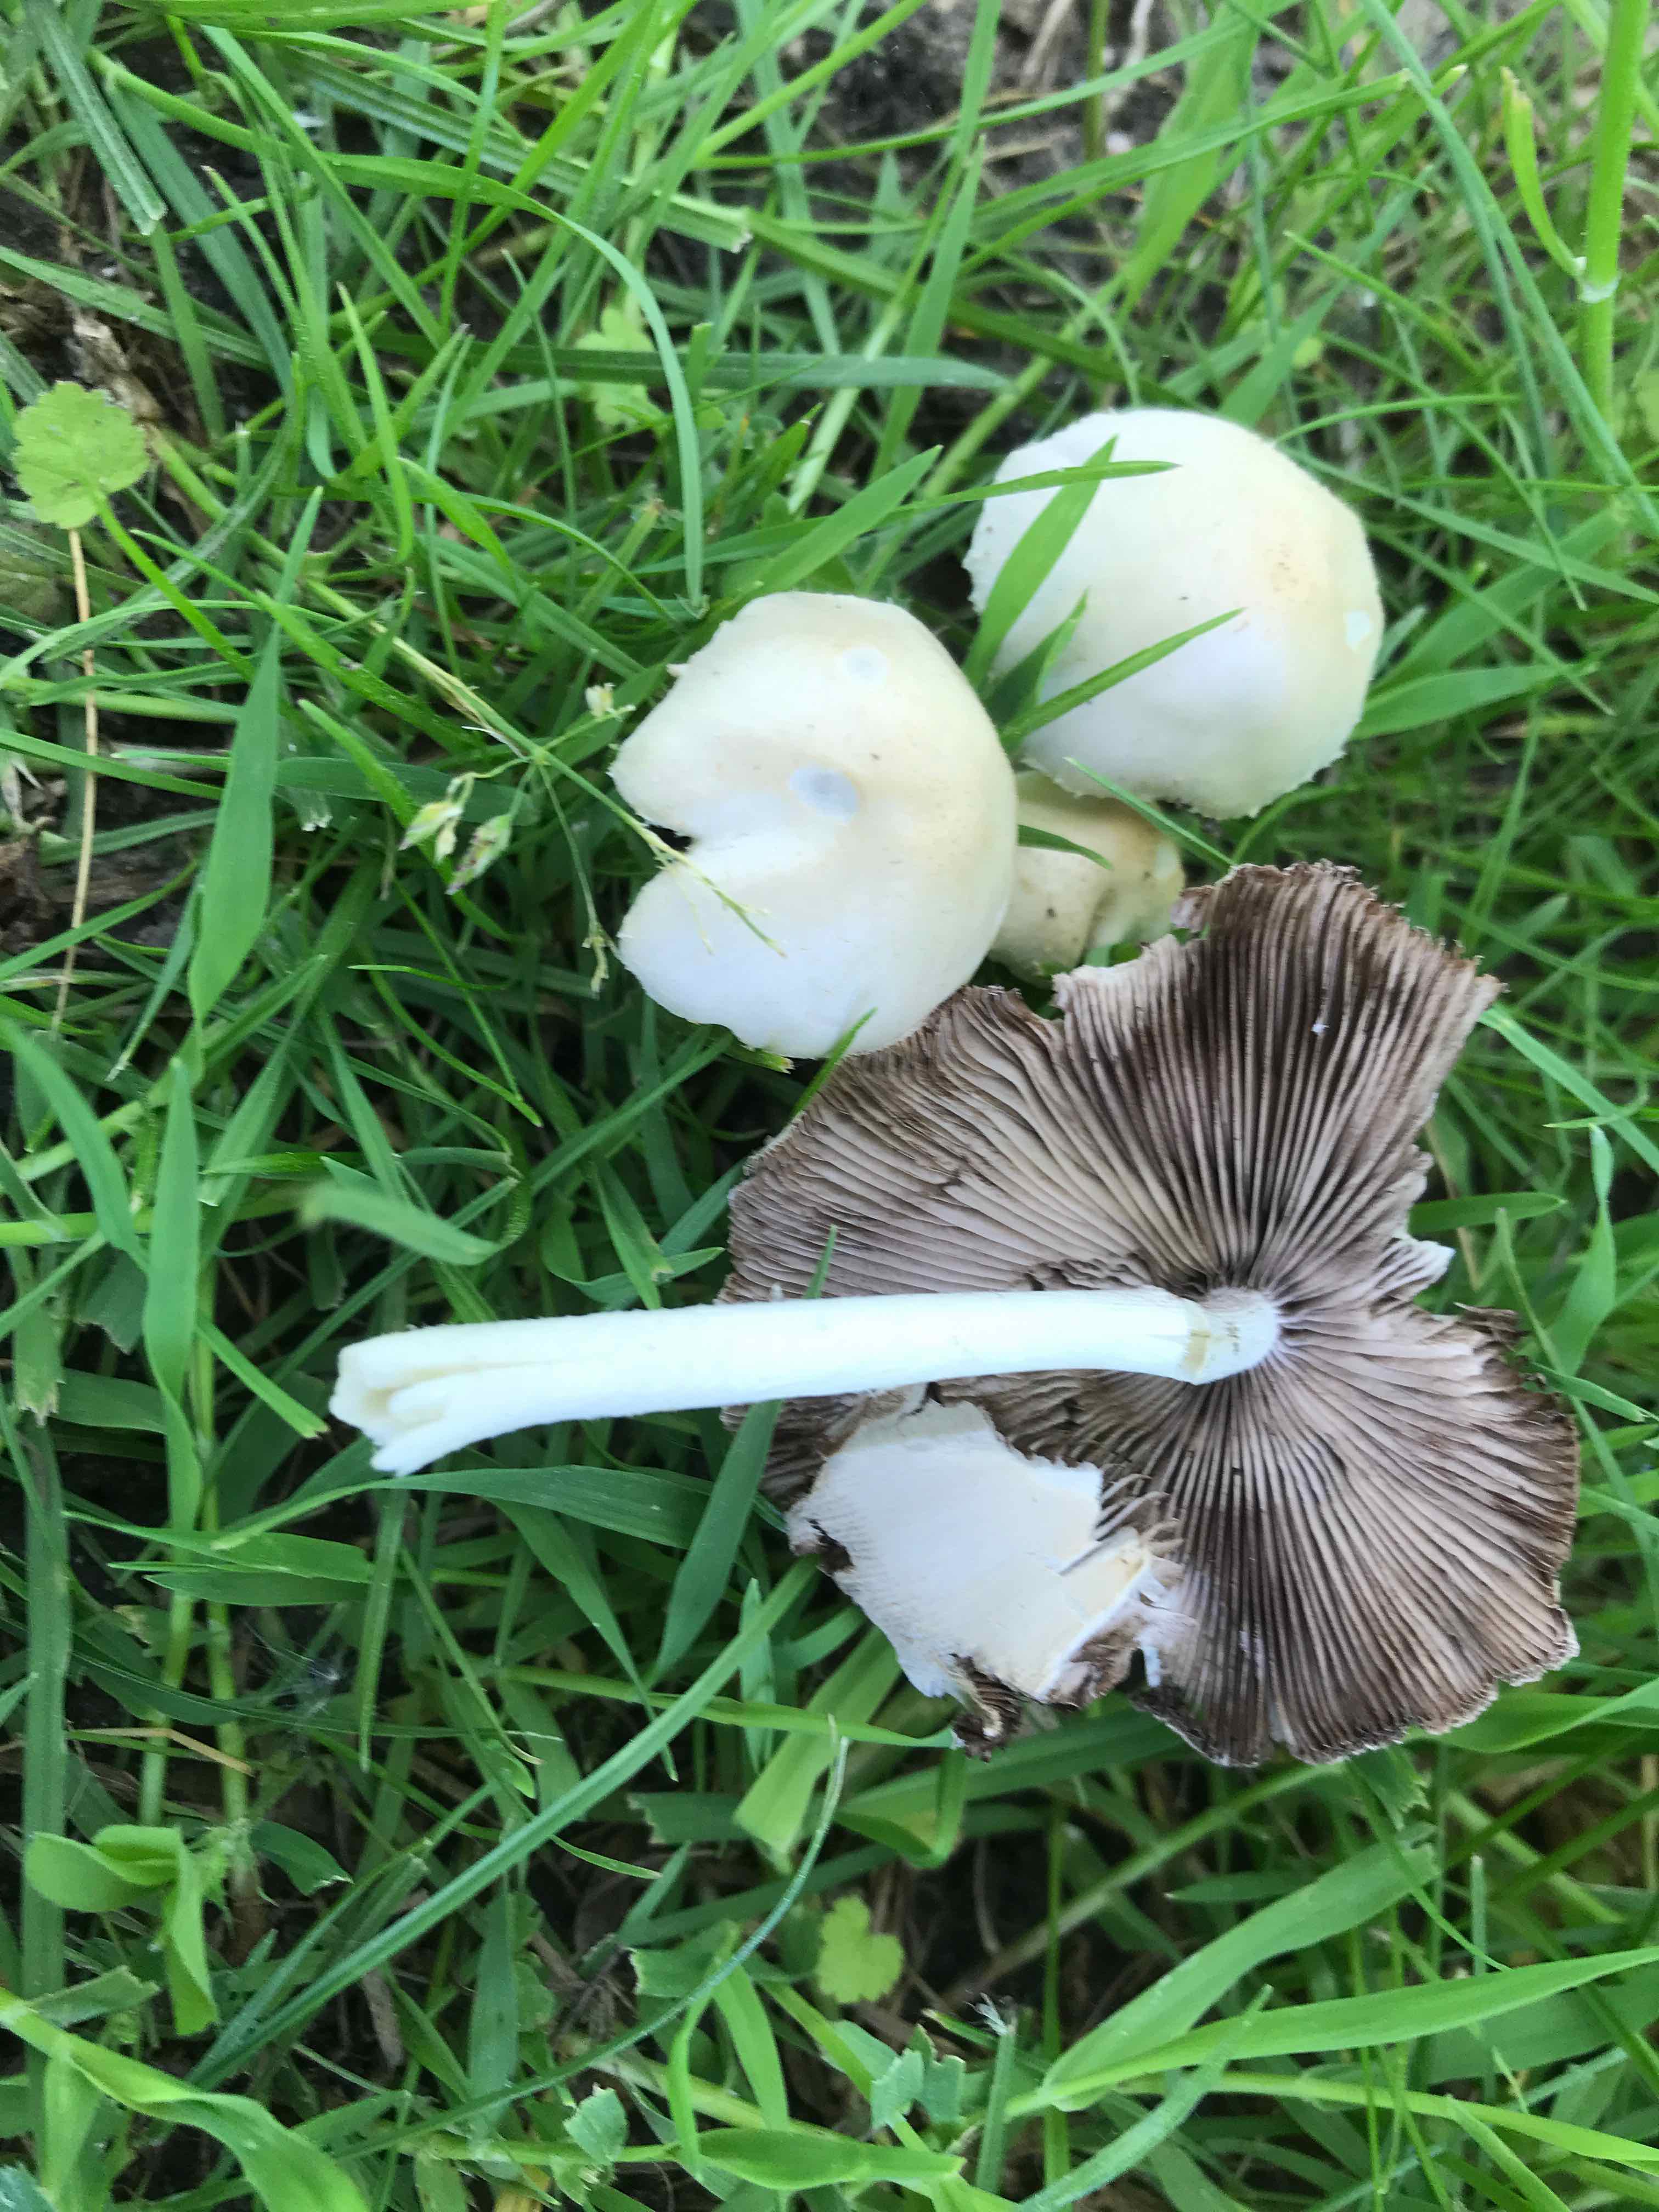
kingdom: Fungi
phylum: Basidiomycota
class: Agaricomycetes
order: Agaricales
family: Psathyrellaceae
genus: Candolleomyces
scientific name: Candolleomyces candolleanus
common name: Candolles mørkhat
